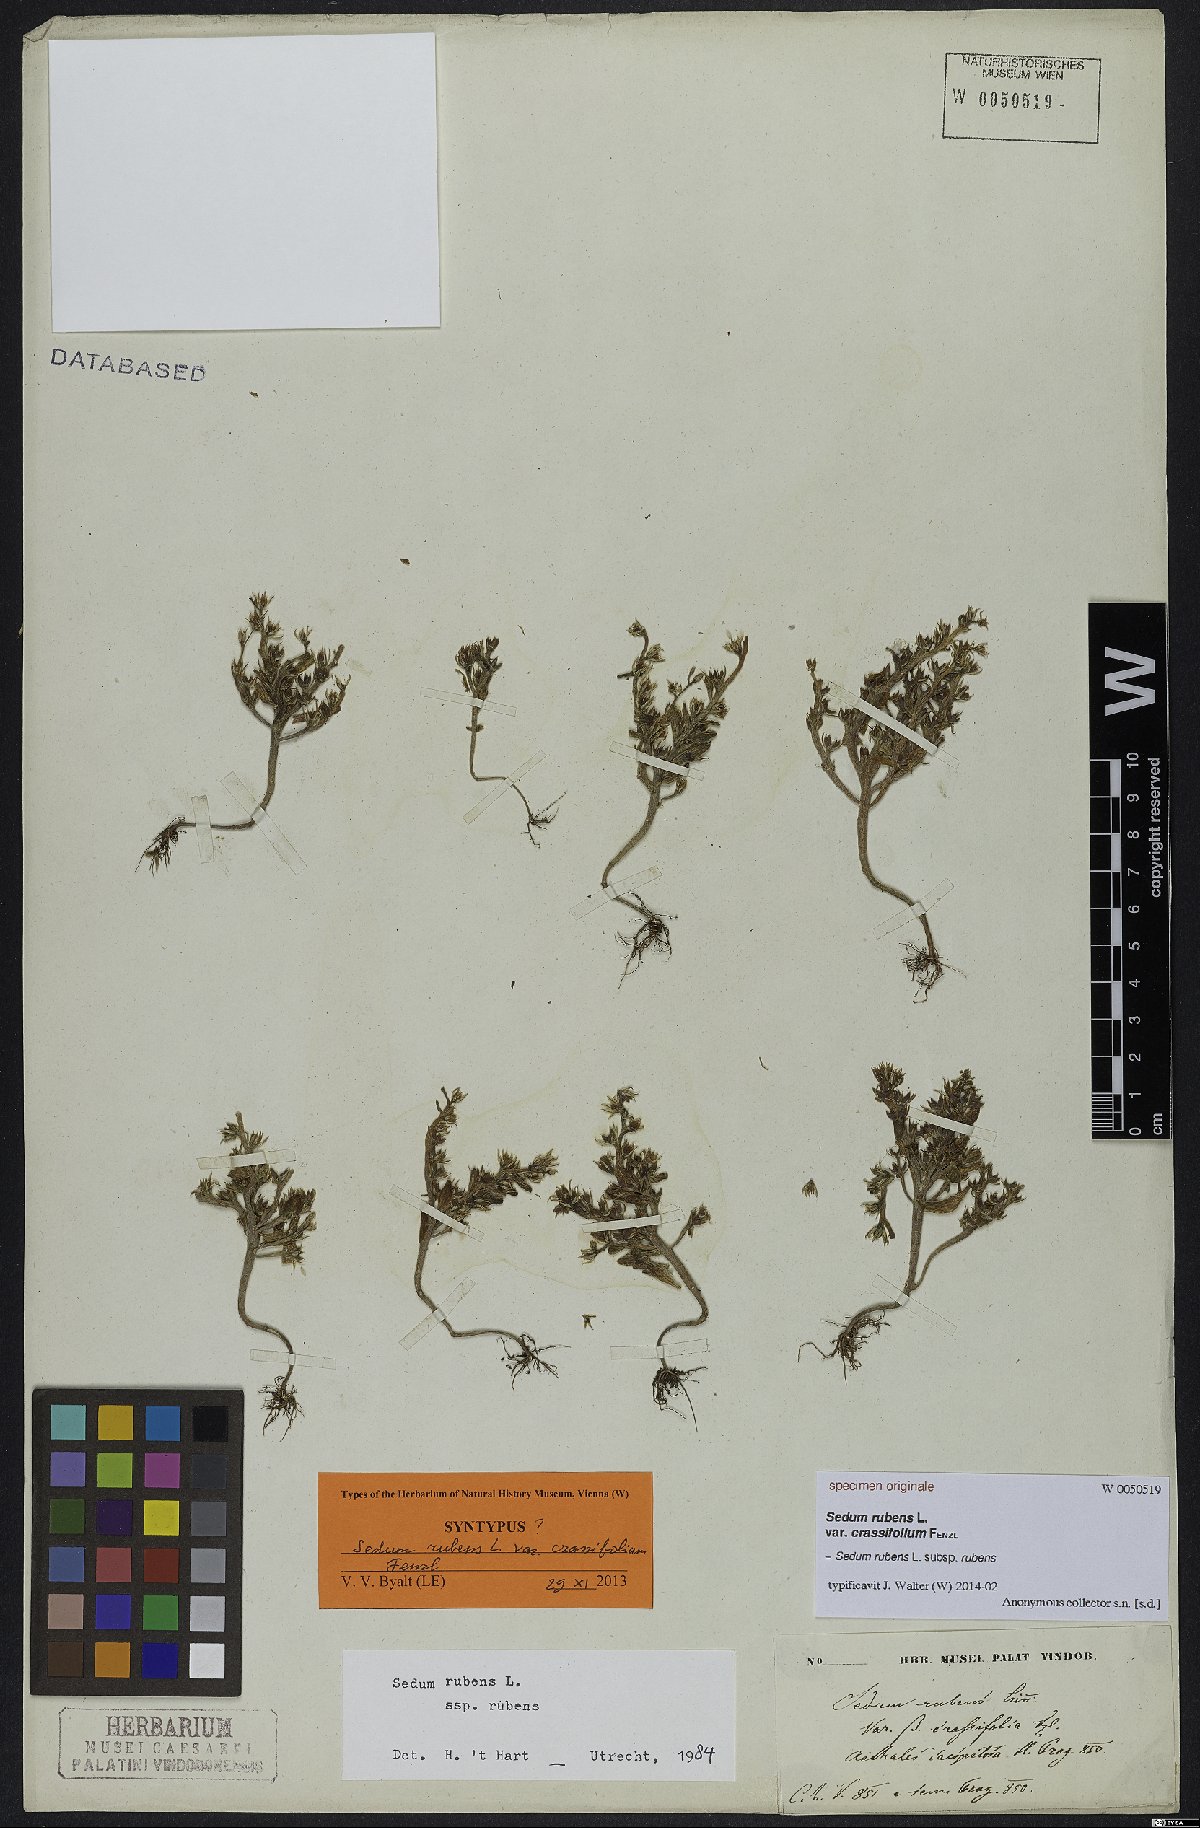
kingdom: Plantae
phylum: Tracheophyta
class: Magnoliopsida
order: Saxifragales
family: Crassulaceae
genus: Sedum
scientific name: Sedum rubens
